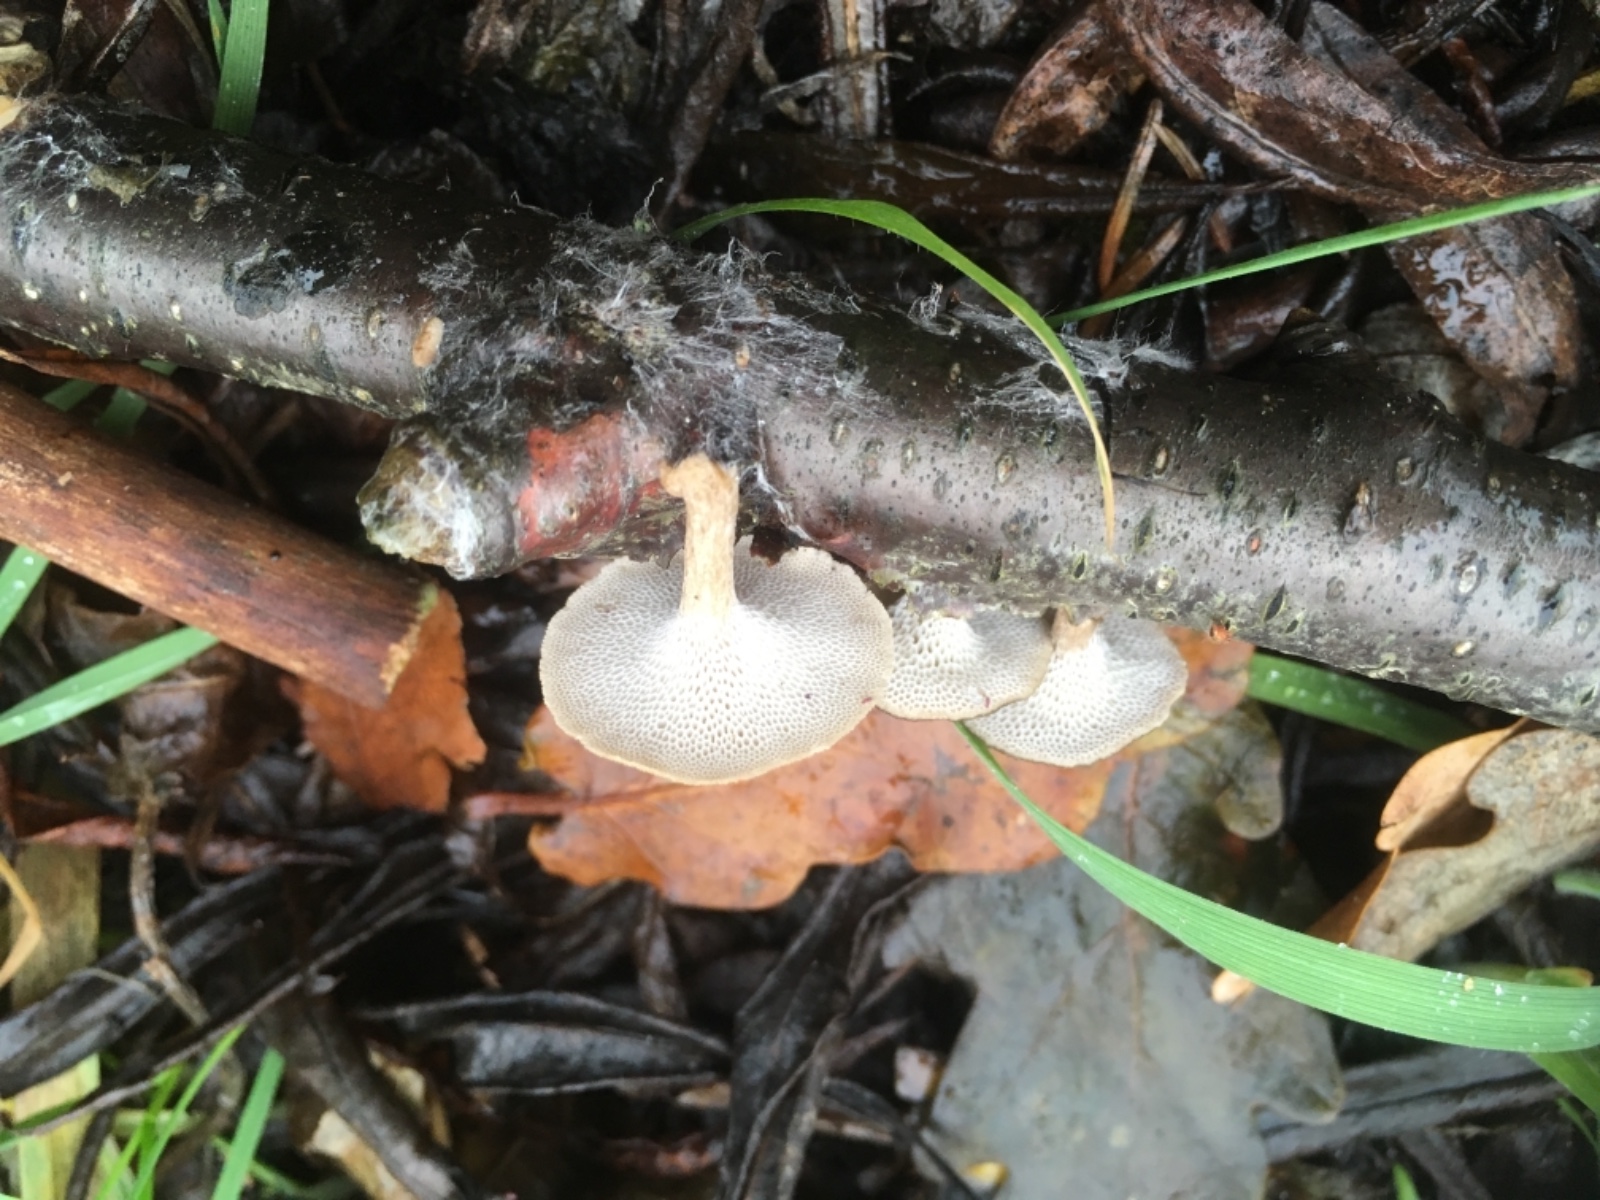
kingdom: Fungi
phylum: Basidiomycota
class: Agaricomycetes
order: Polyporales
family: Polyporaceae
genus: Lentinus
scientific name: Lentinus brumalis
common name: vinter-stilkporesvamp
